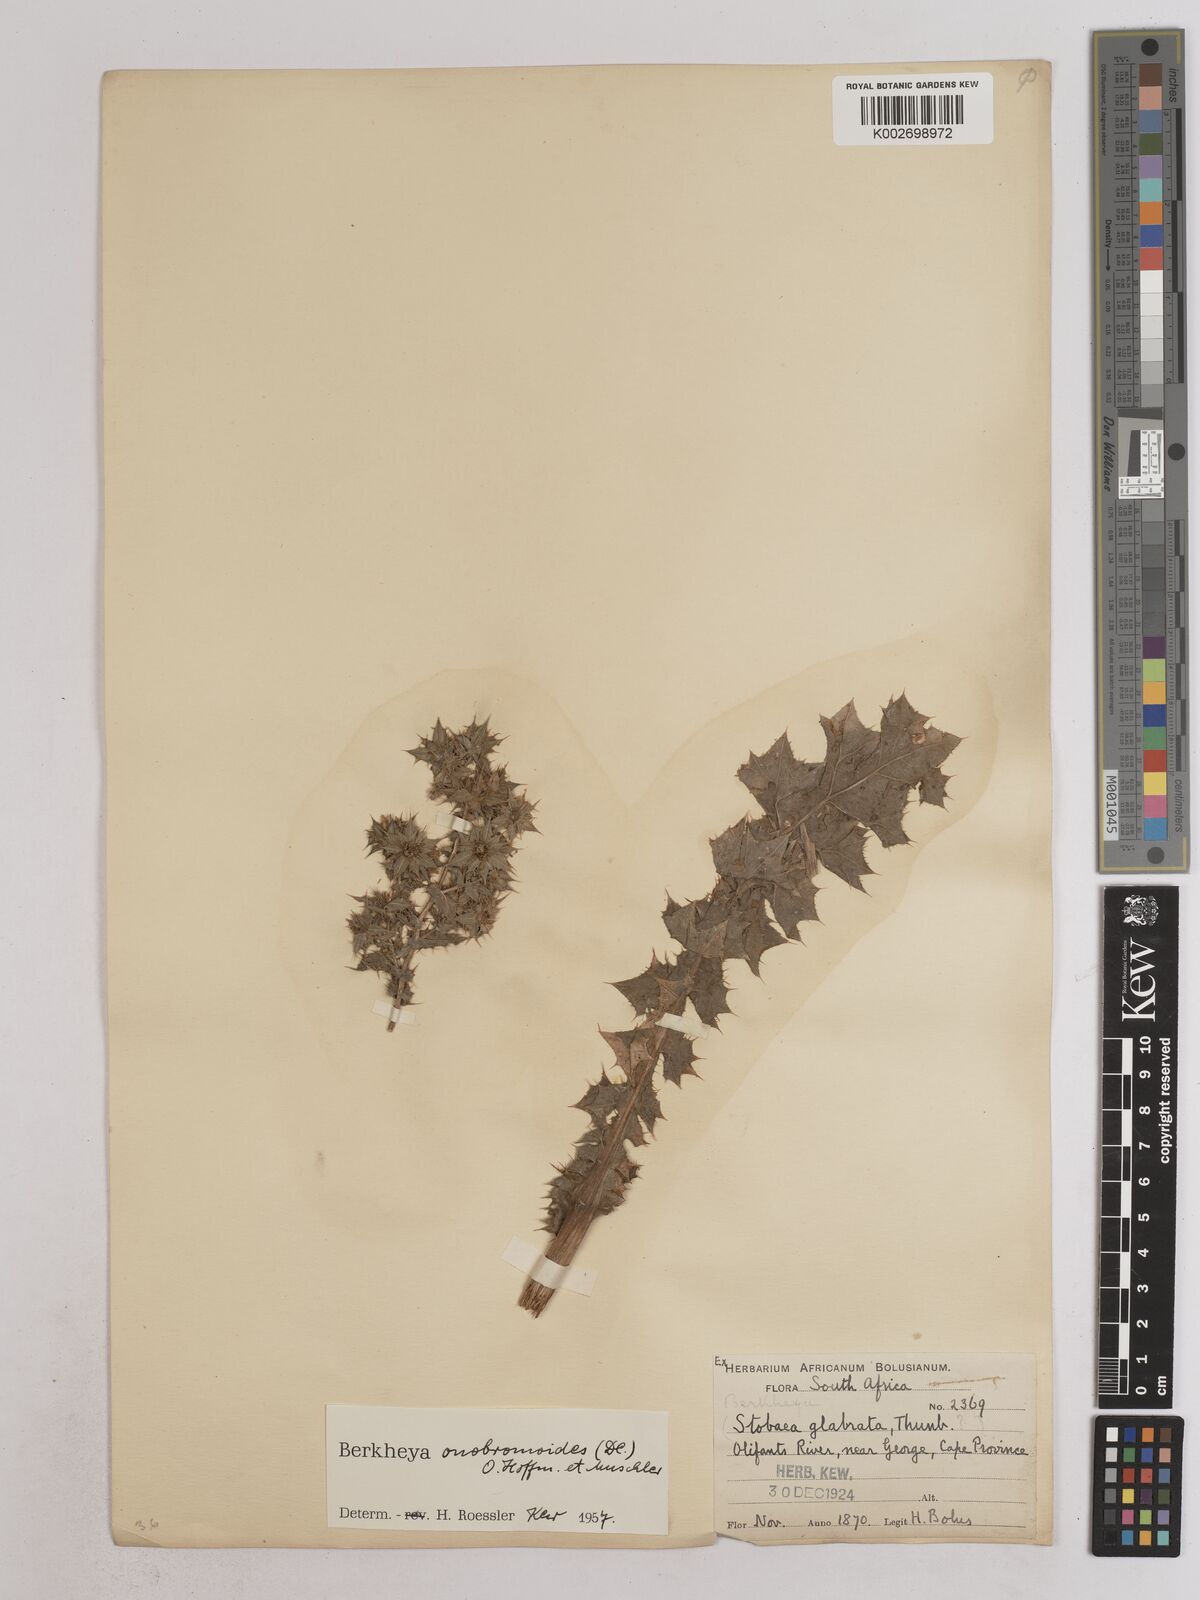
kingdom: Plantae
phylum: Tracheophyta
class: Magnoliopsida
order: Asterales
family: Asteraceae
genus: Berkheya
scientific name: Berkheya onobromoides
